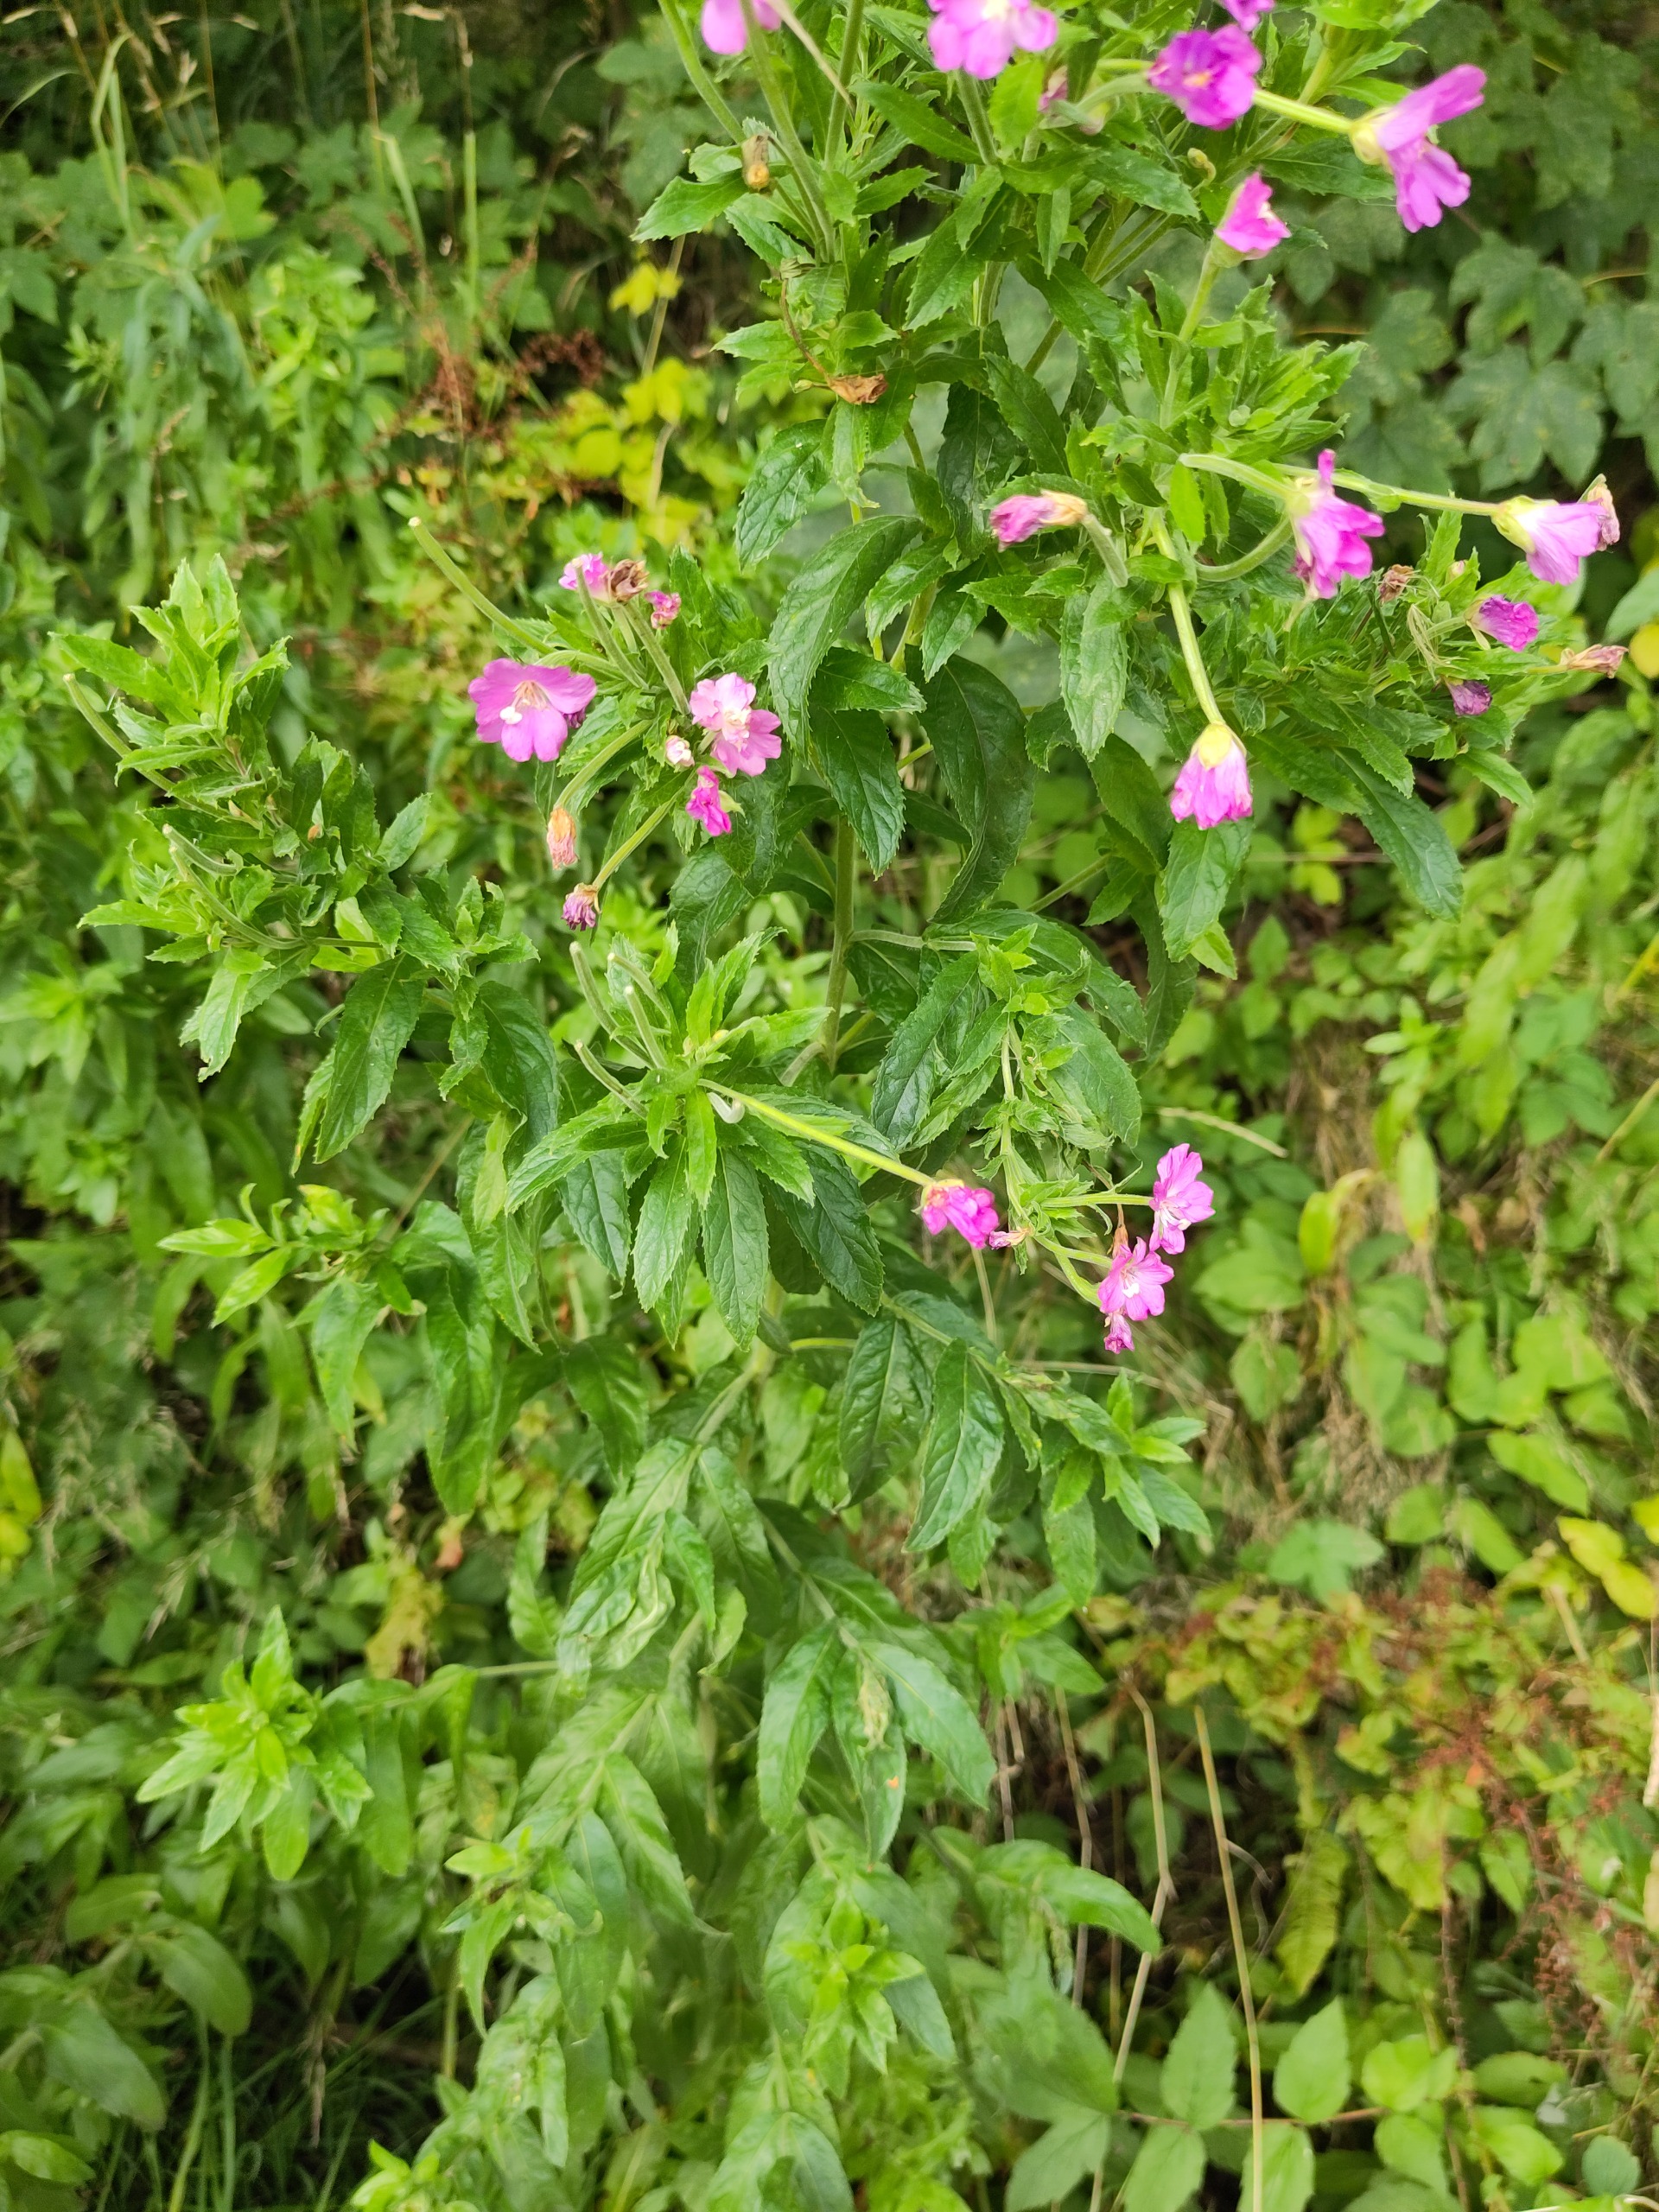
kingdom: Plantae
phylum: Tracheophyta
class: Magnoliopsida
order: Myrtales
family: Onagraceae
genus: Epilobium
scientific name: Epilobium hirsutum
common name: Lådden dueurt
